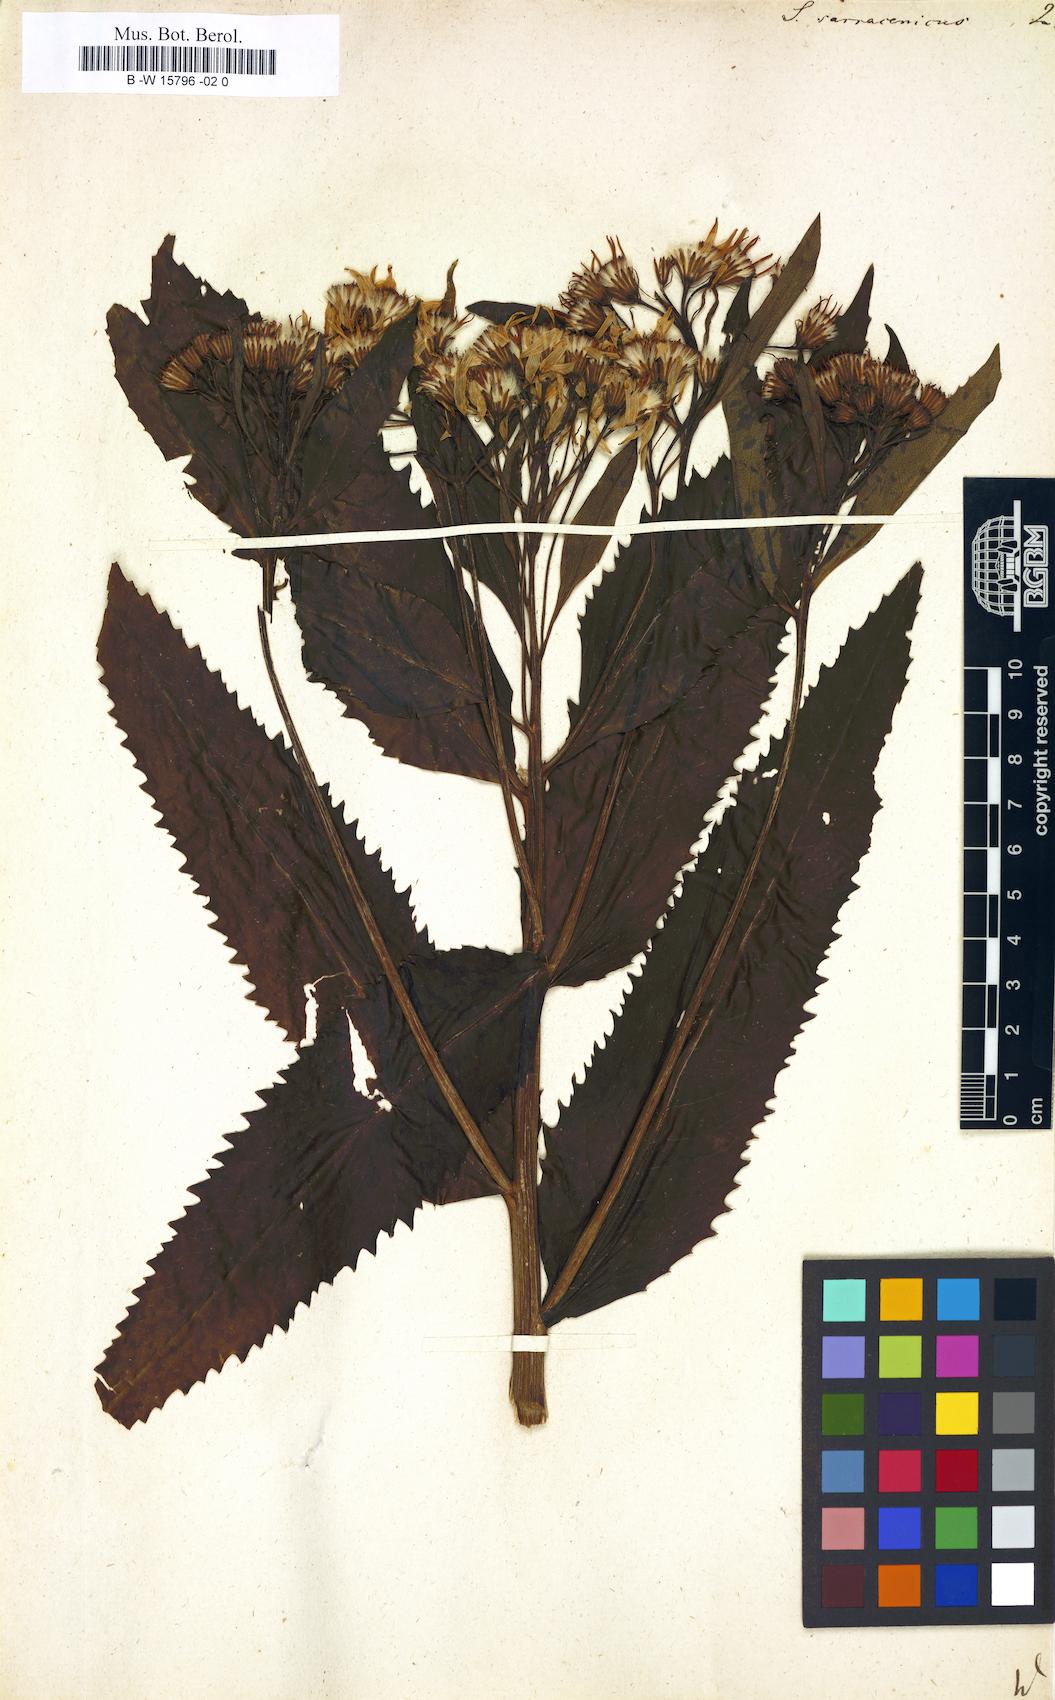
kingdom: Plantae
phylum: Tracheophyta
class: Magnoliopsida
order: Asterales
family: Asteraceae
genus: Senecio
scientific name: Senecio sarracenicus
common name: Broad-leaved ragwort
